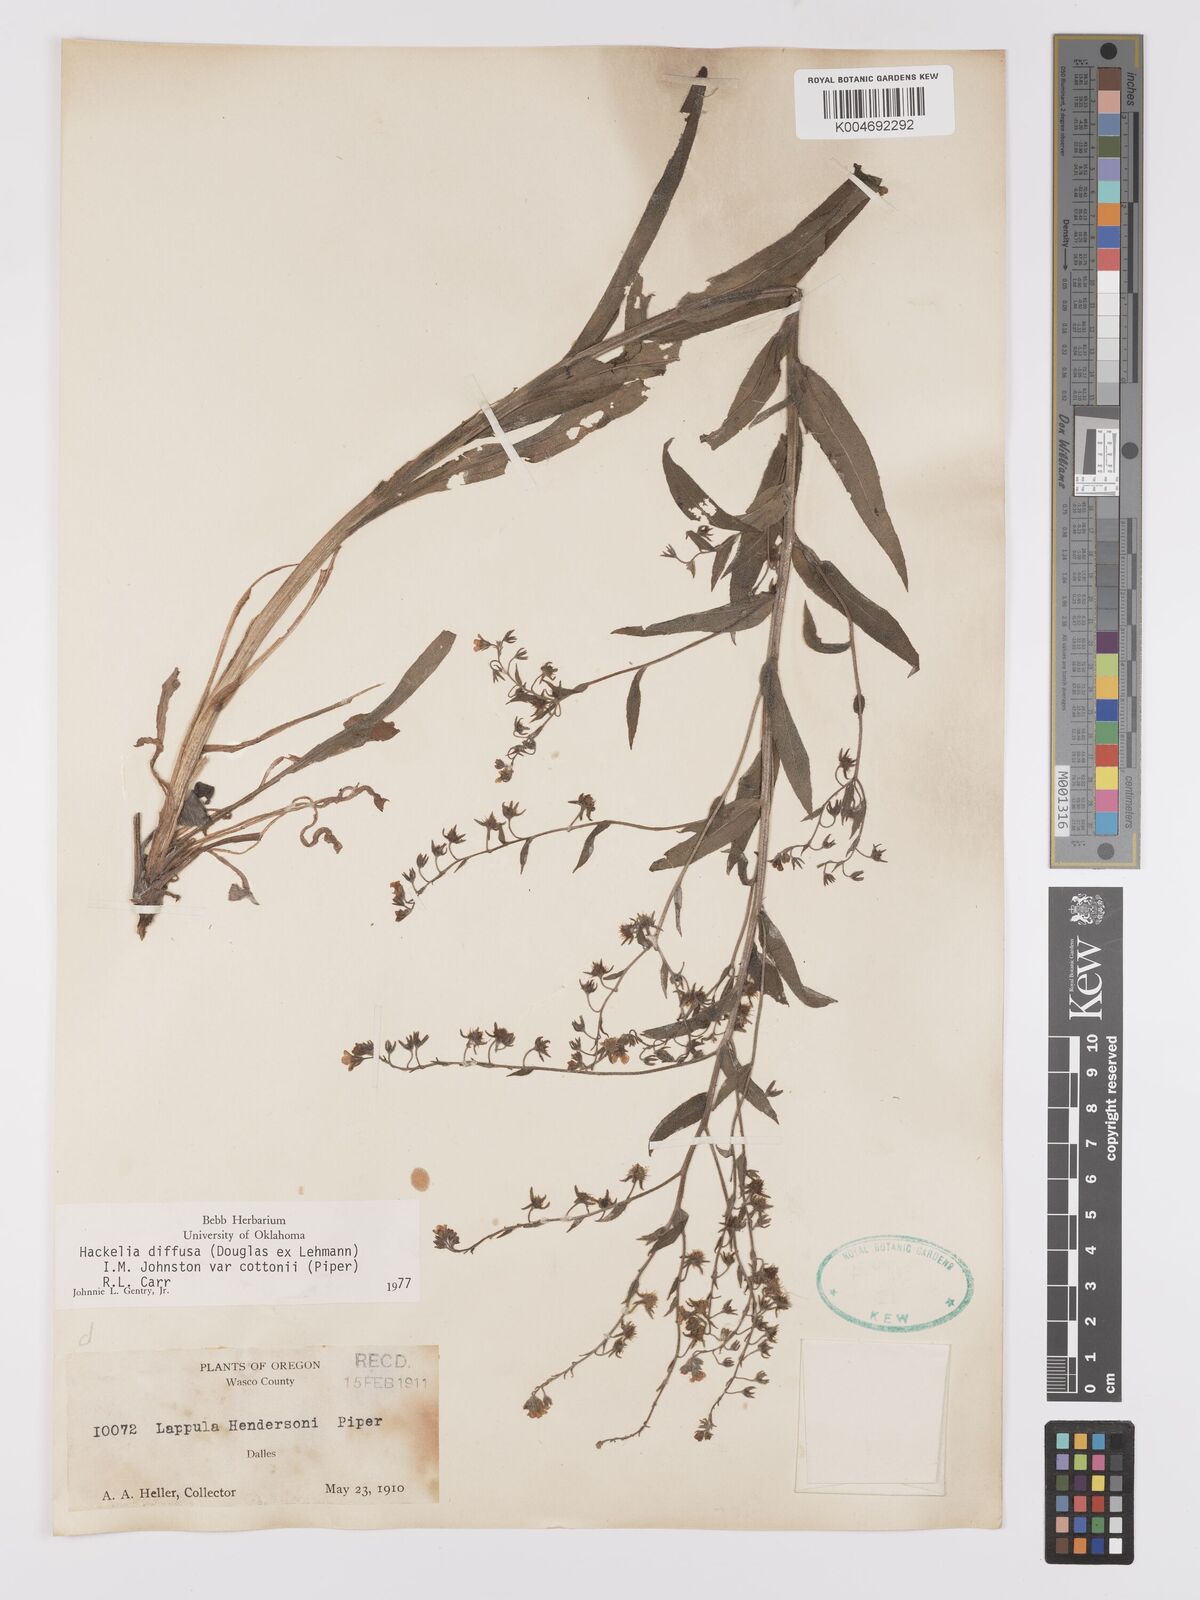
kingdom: Plantae
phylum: Tracheophyta
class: Magnoliopsida
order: Boraginales
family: Boraginaceae
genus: Hackelia
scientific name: Hackelia diffusa
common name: Spreading hackelia
